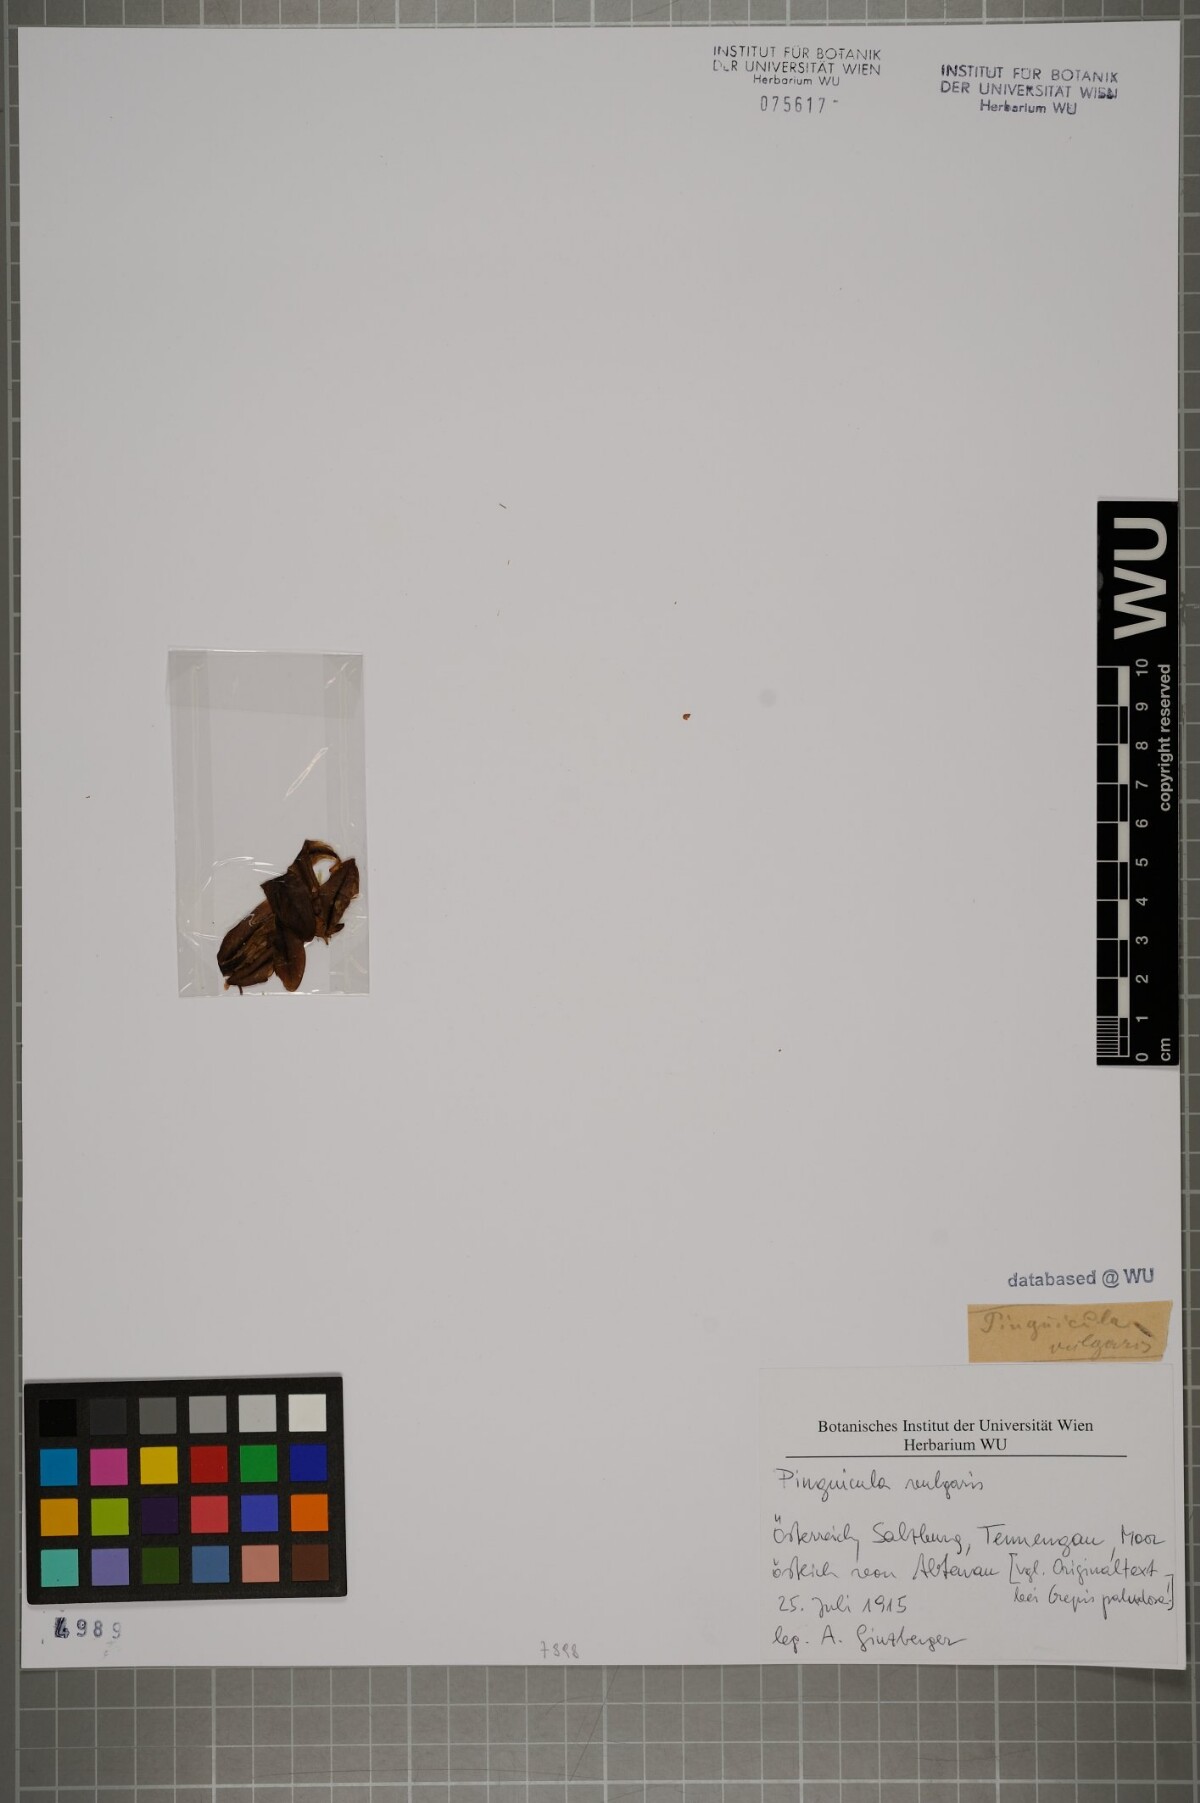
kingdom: Plantae
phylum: Tracheophyta
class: Magnoliopsida
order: Lamiales
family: Lentibulariaceae
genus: Pinguicula
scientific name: Pinguicula vulgaris
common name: Common butterwort
